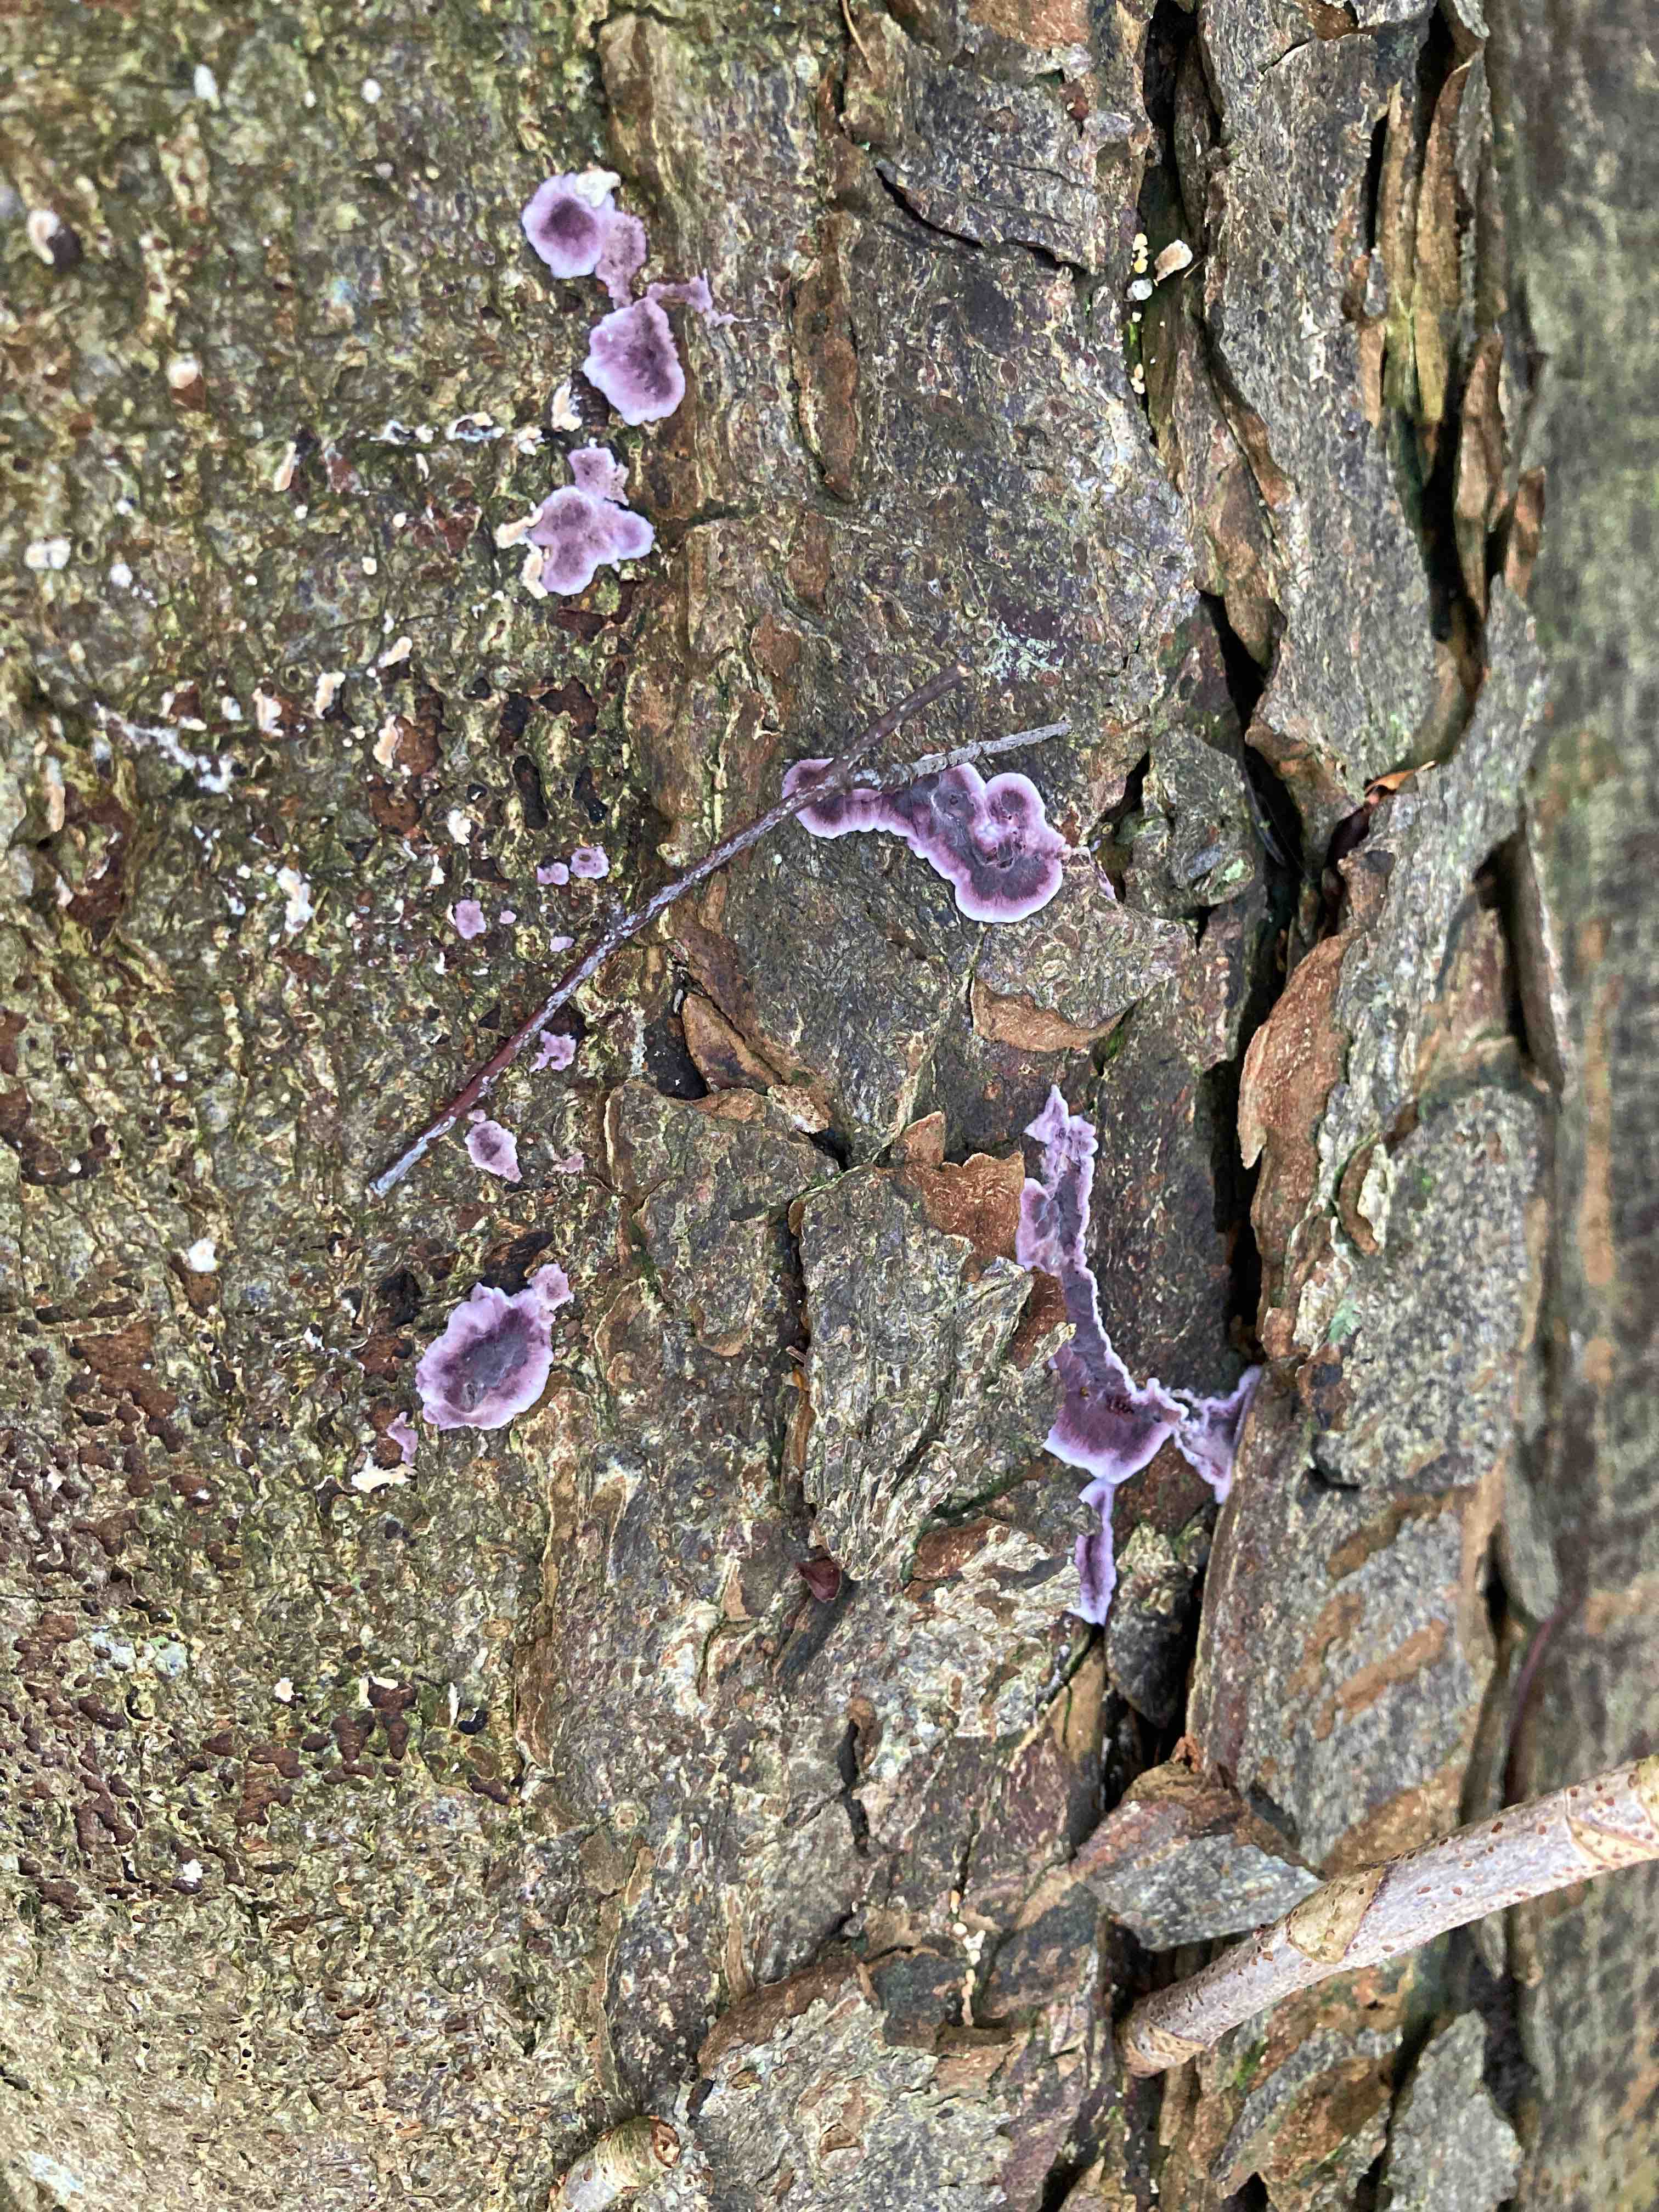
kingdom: Fungi
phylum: Basidiomycota
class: Agaricomycetes
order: Agaricales
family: Cyphellaceae
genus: Chondrostereum
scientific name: Chondrostereum purpureum
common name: purpurlædersvamp
